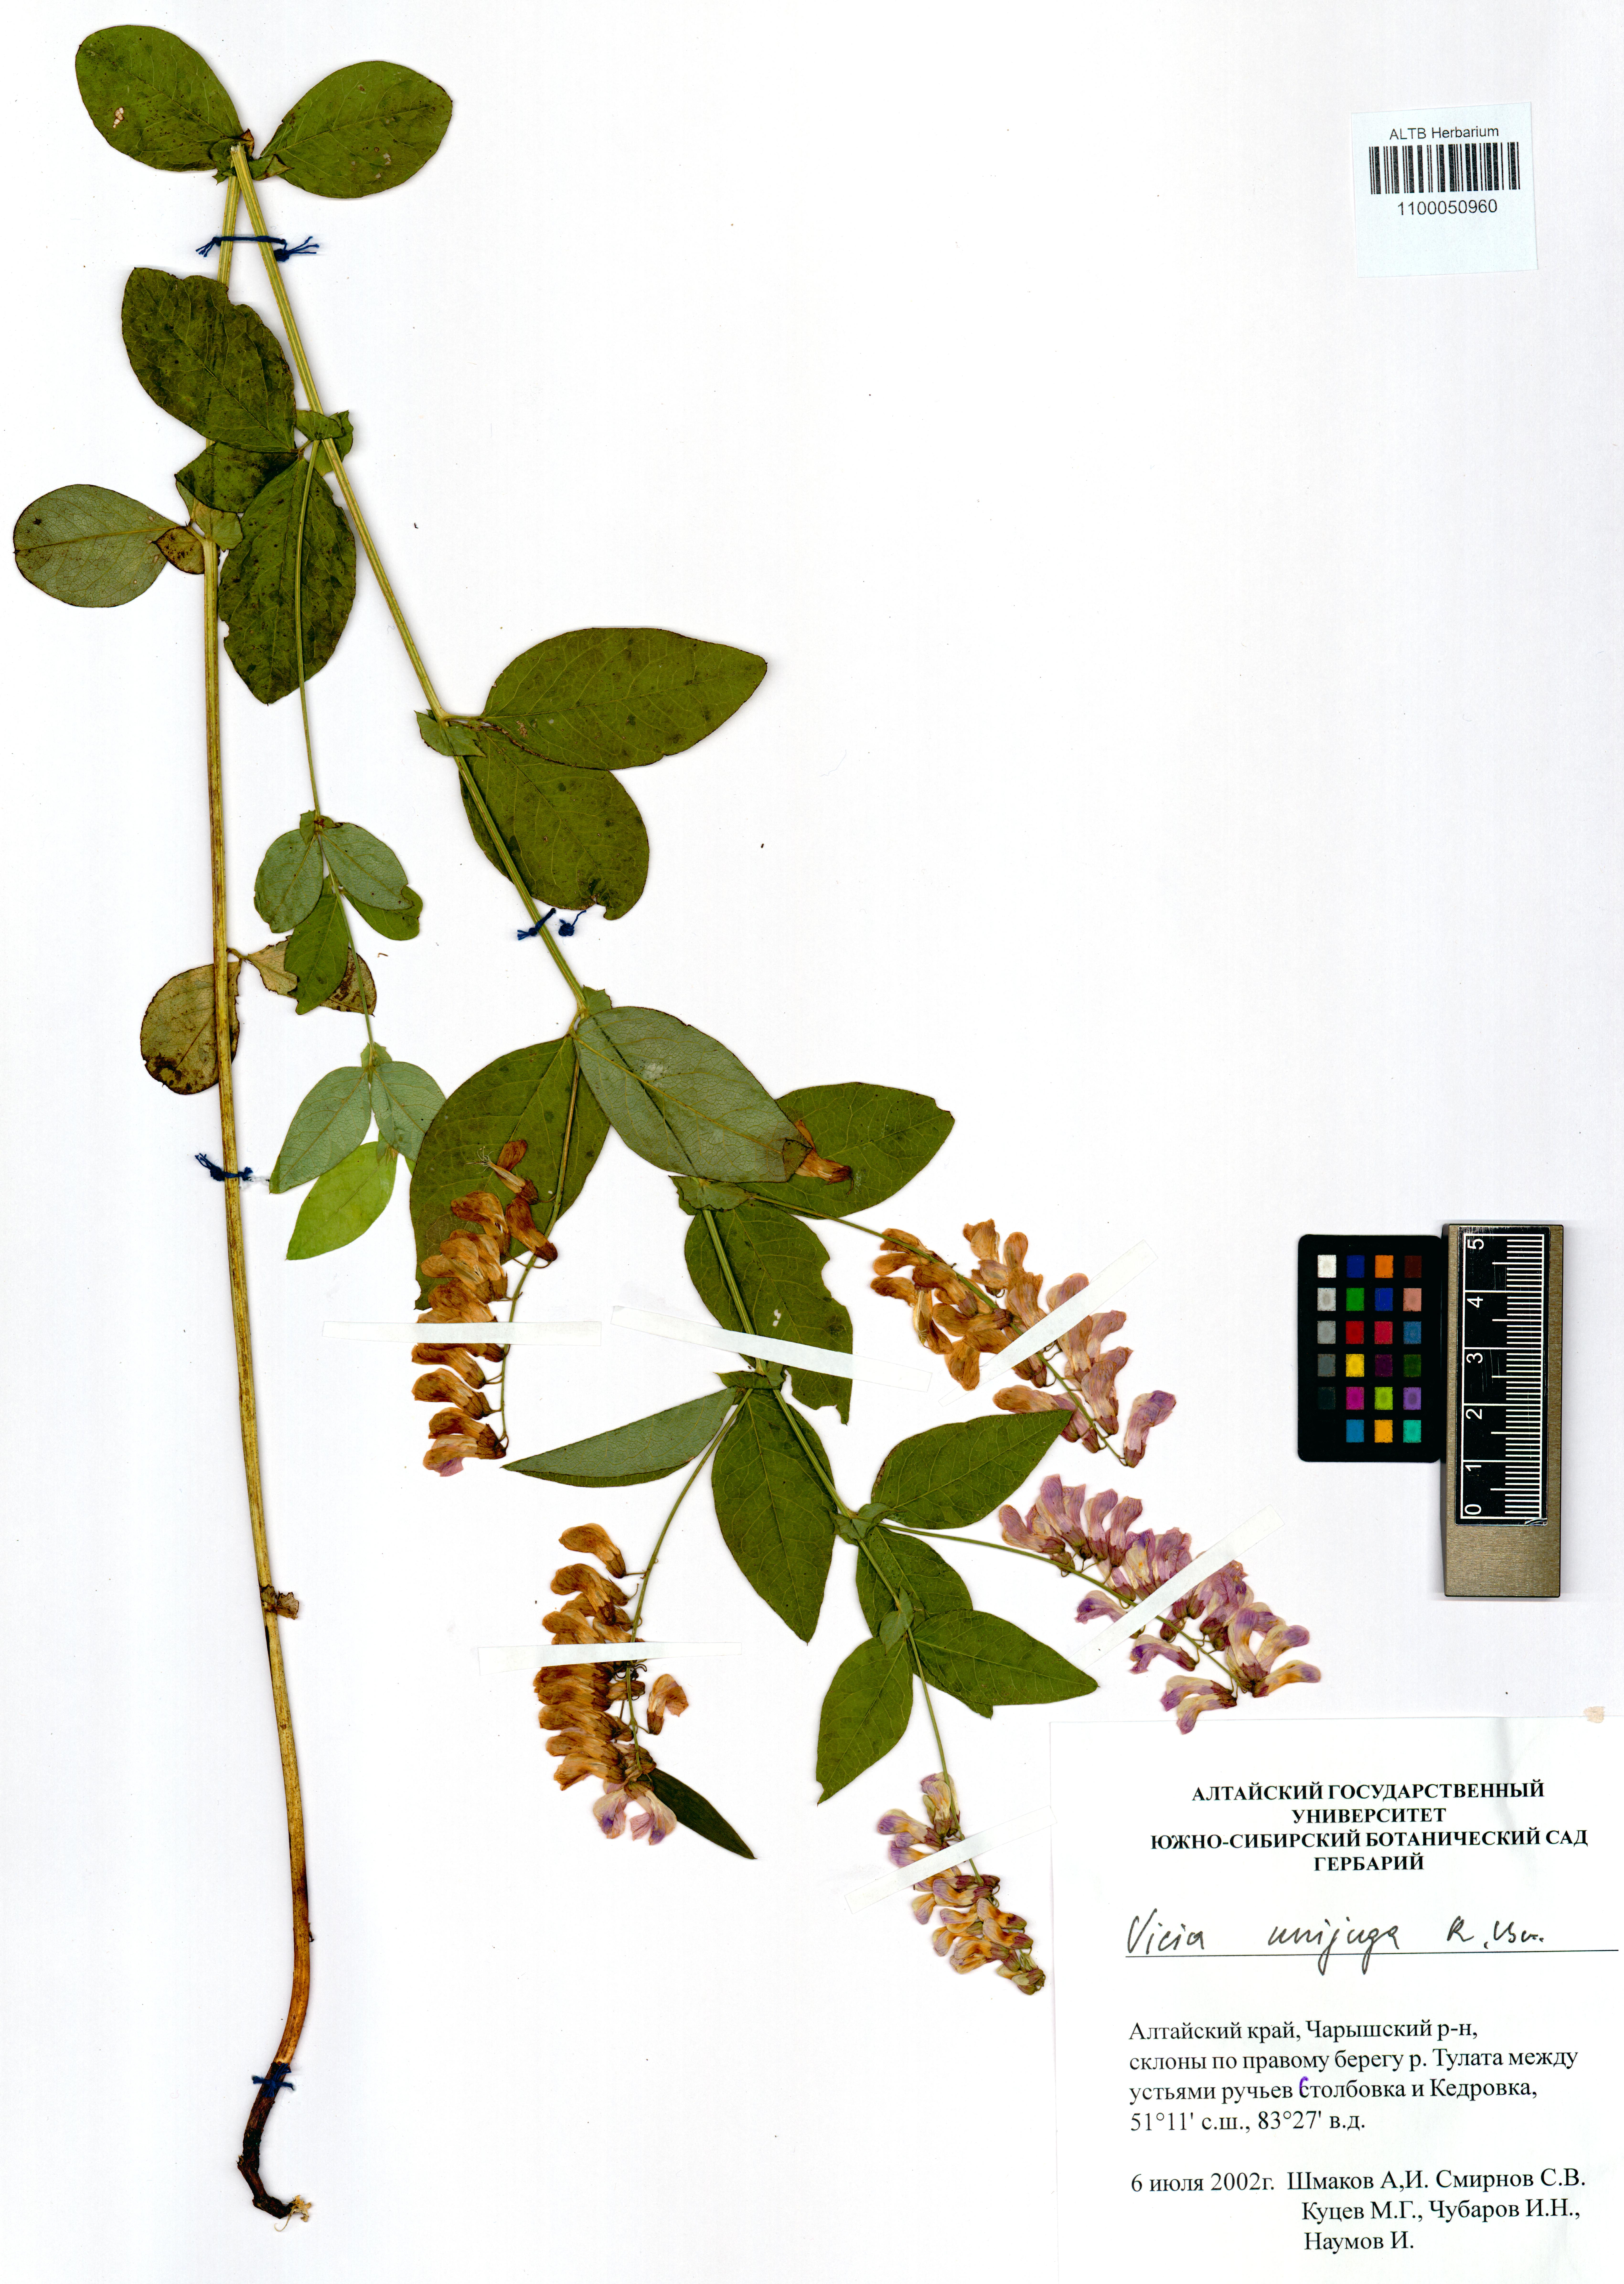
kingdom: Plantae
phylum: Tracheophyta
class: Magnoliopsida
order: Fabales
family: Fabaceae
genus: Vicia
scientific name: Vicia unijuga
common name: Two-leaf vetch
